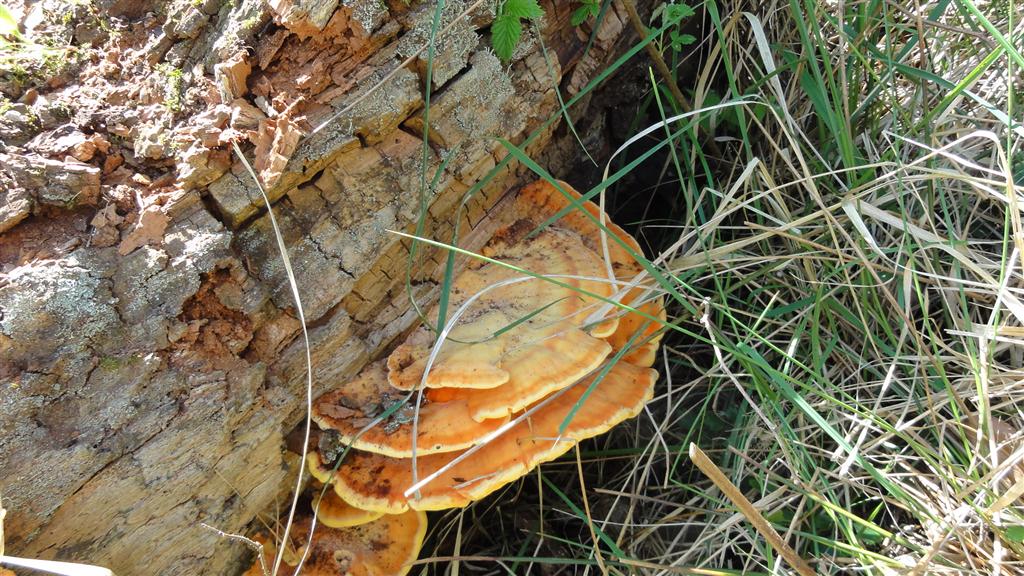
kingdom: Fungi
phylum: Basidiomycota
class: Agaricomycetes
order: Polyporales
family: Laetiporaceae
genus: Laetiporus
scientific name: Laetiporus sulphureus
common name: svovlporesvamp
